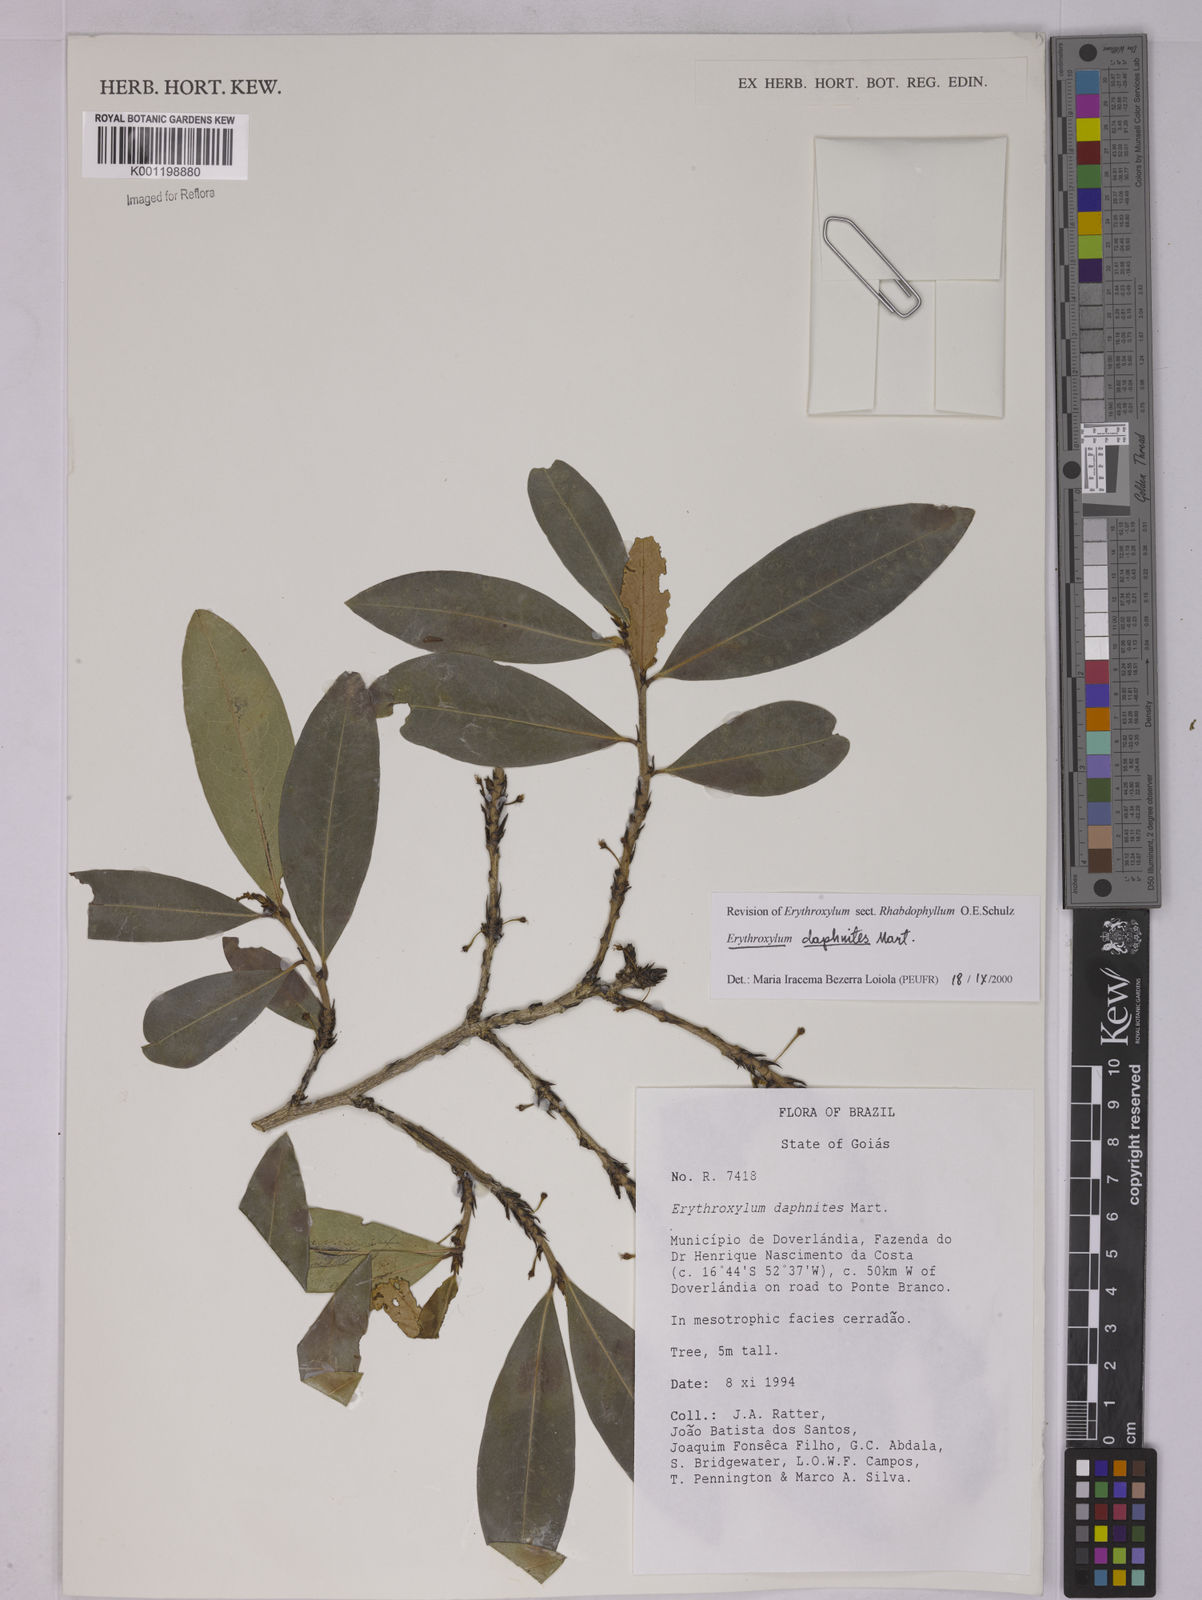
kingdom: Plantae
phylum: Tracheophyta
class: Magnoliopsida
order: Malpighiales
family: Erythroxylaceae
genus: Erythroxylum
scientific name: Erythroxylum daphnites
